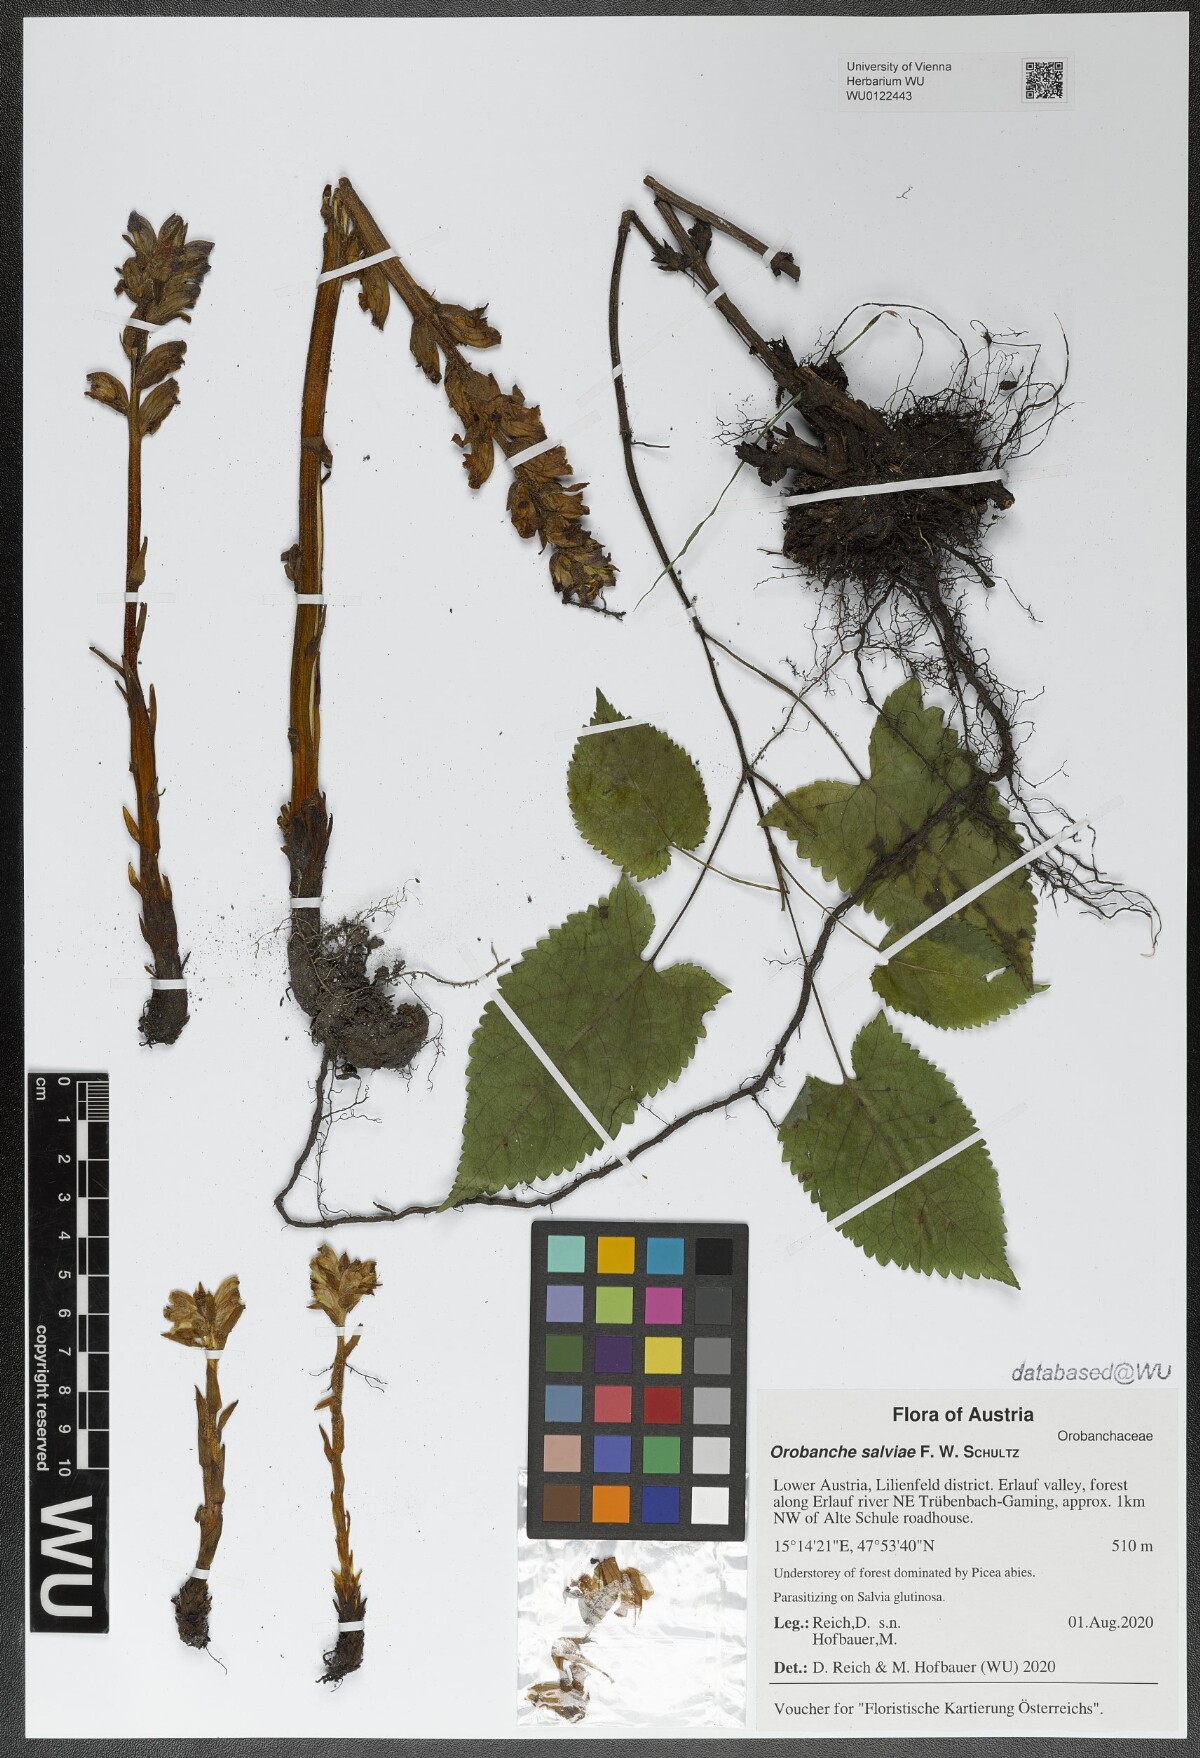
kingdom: Plantae
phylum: Tracheophyta
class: Magnoliopsida
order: Lamiales
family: Orobanchaceae
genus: Orobanche
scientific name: Orobanche salviae
